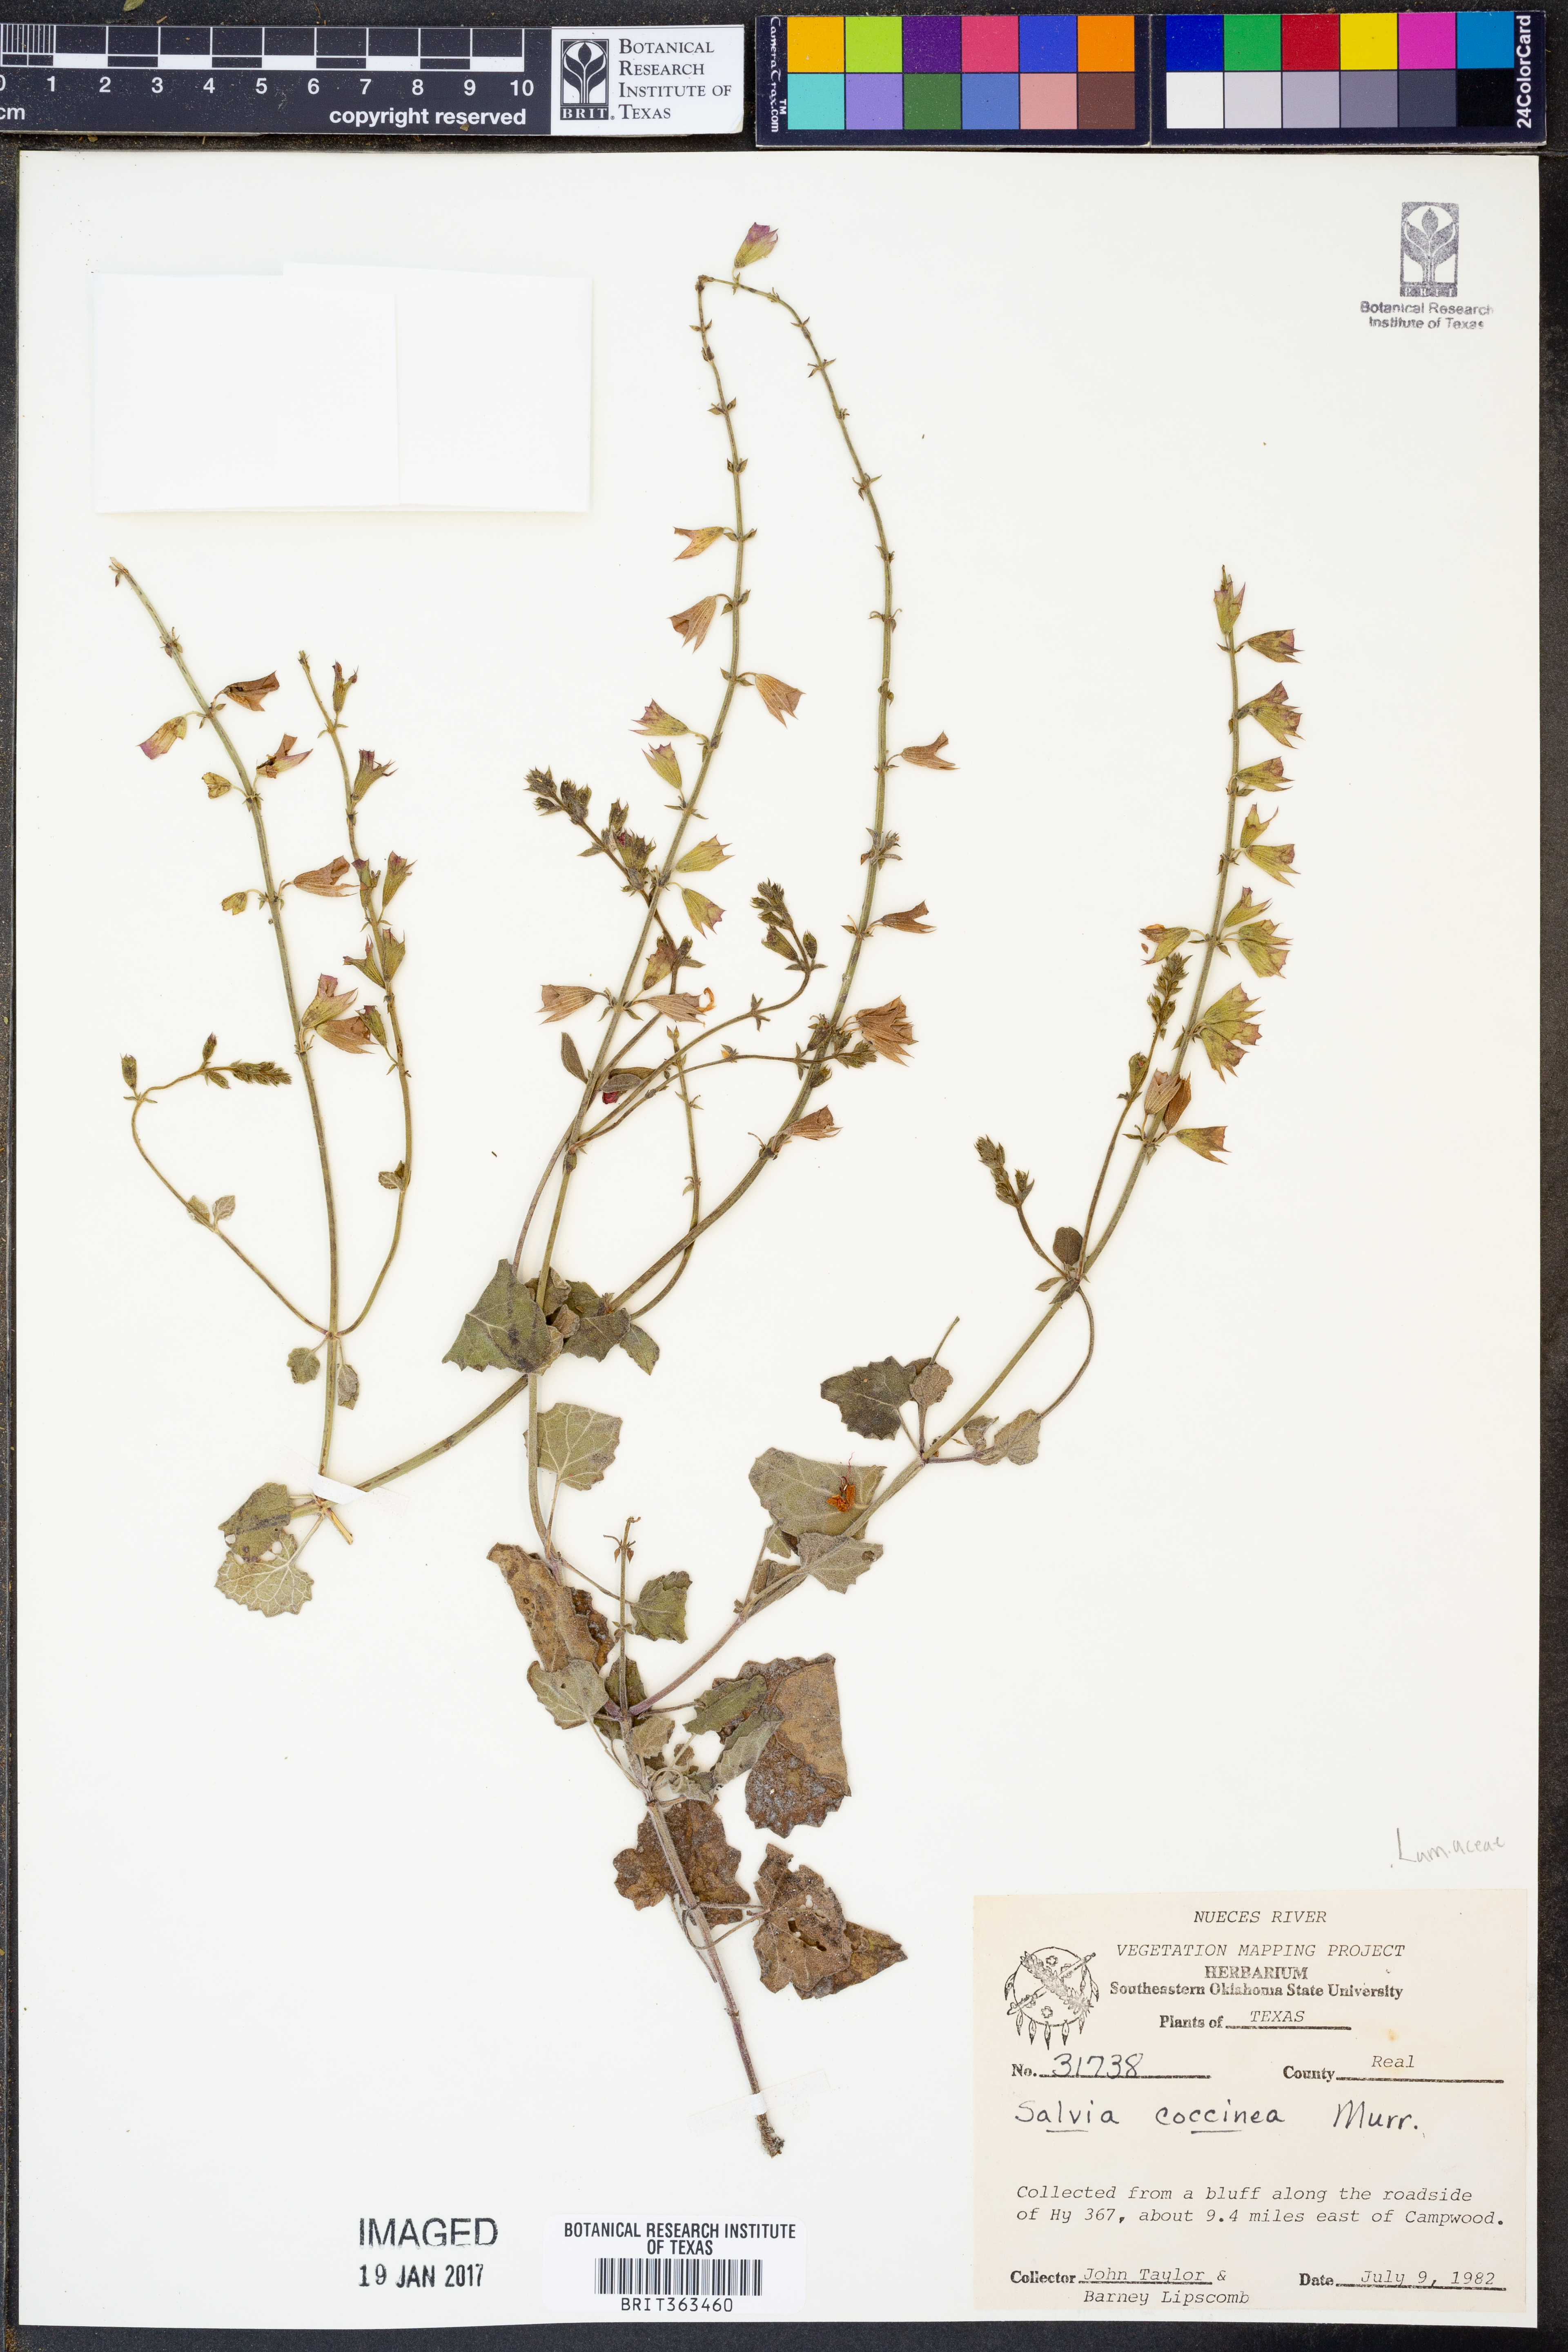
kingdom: Plantae
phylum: Tracheophyta
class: Magnoliopsida
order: Lamiales
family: Lamiaceae
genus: Salvia
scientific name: Salvia coccinea
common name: Blood sage
